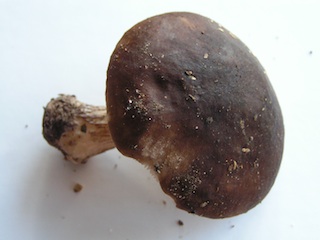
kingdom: Fungi
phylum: Basidiomycota
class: Agaricomycetes
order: Agaricales
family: Pluteaceae
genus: Pluteus
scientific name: Pluteus cervinus
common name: sodfarvet skærmhat
